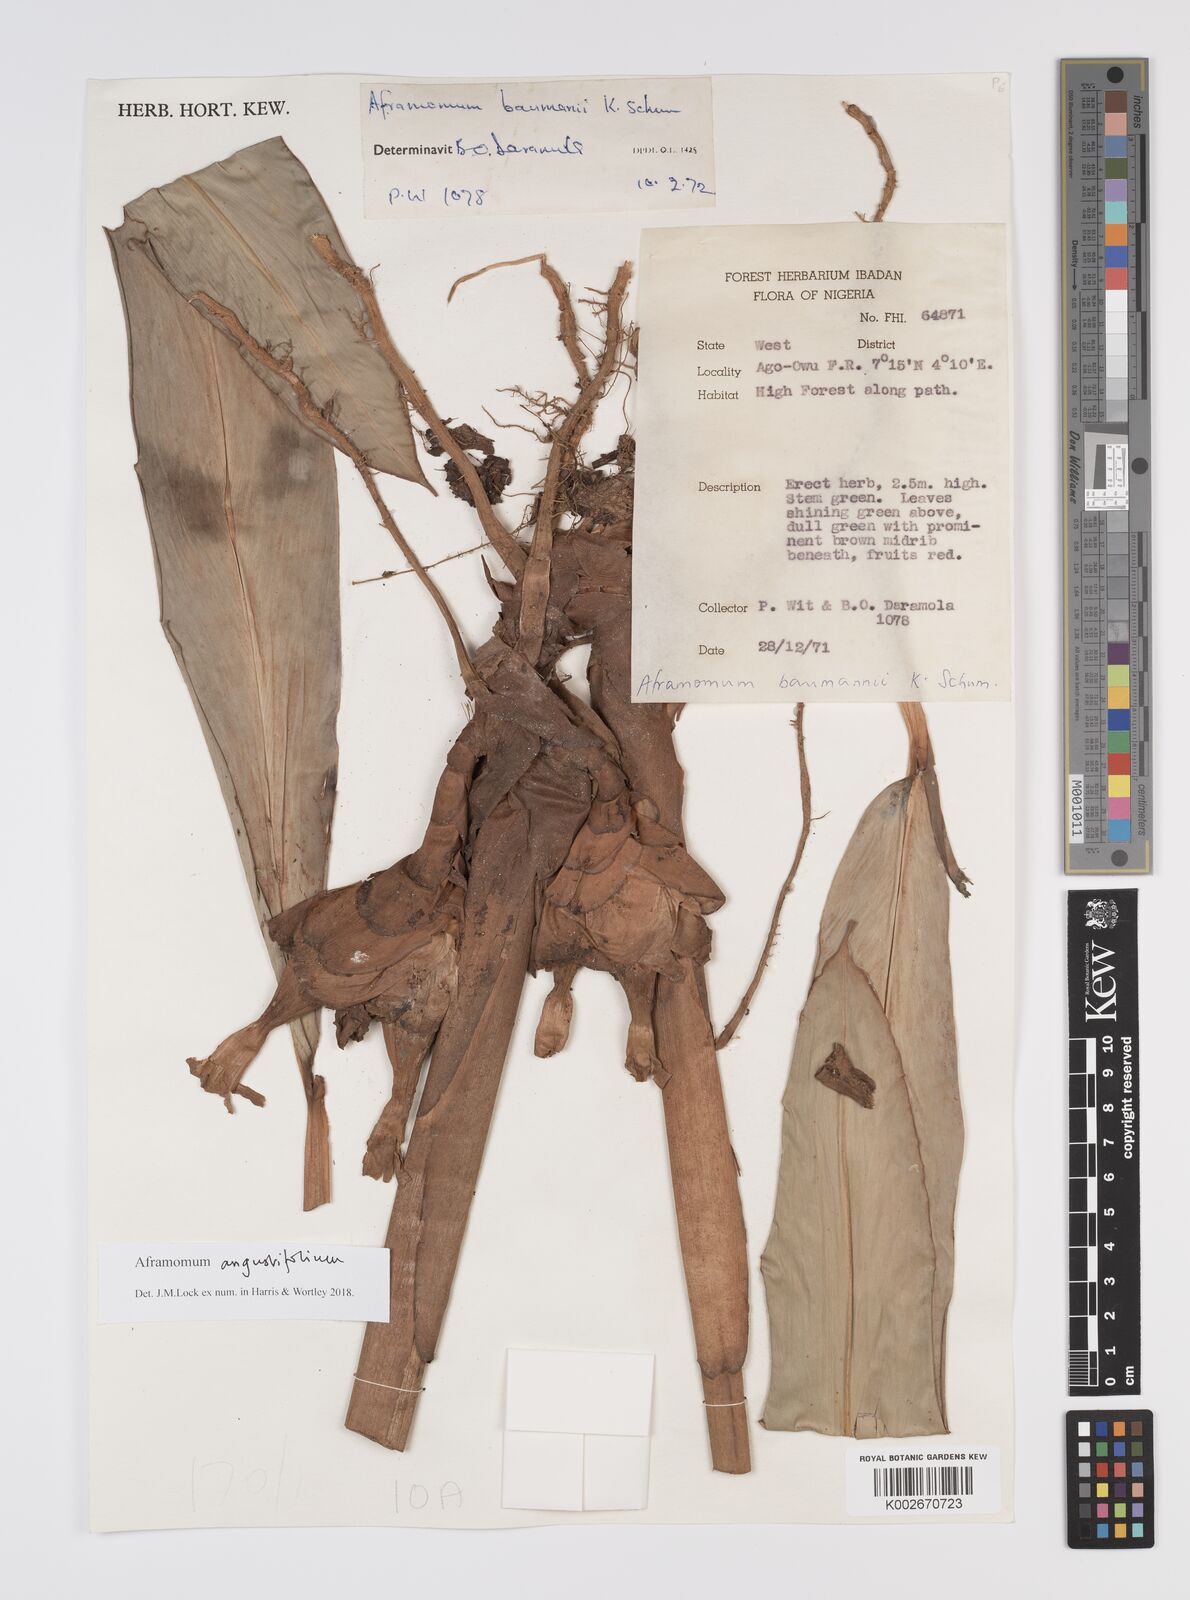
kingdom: Plantae
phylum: Tracheophyta
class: Liliopsida
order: Zingiberales
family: Zingiberaceae
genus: Aframomum
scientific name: Aframomum angustifolium
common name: Guinea grains
